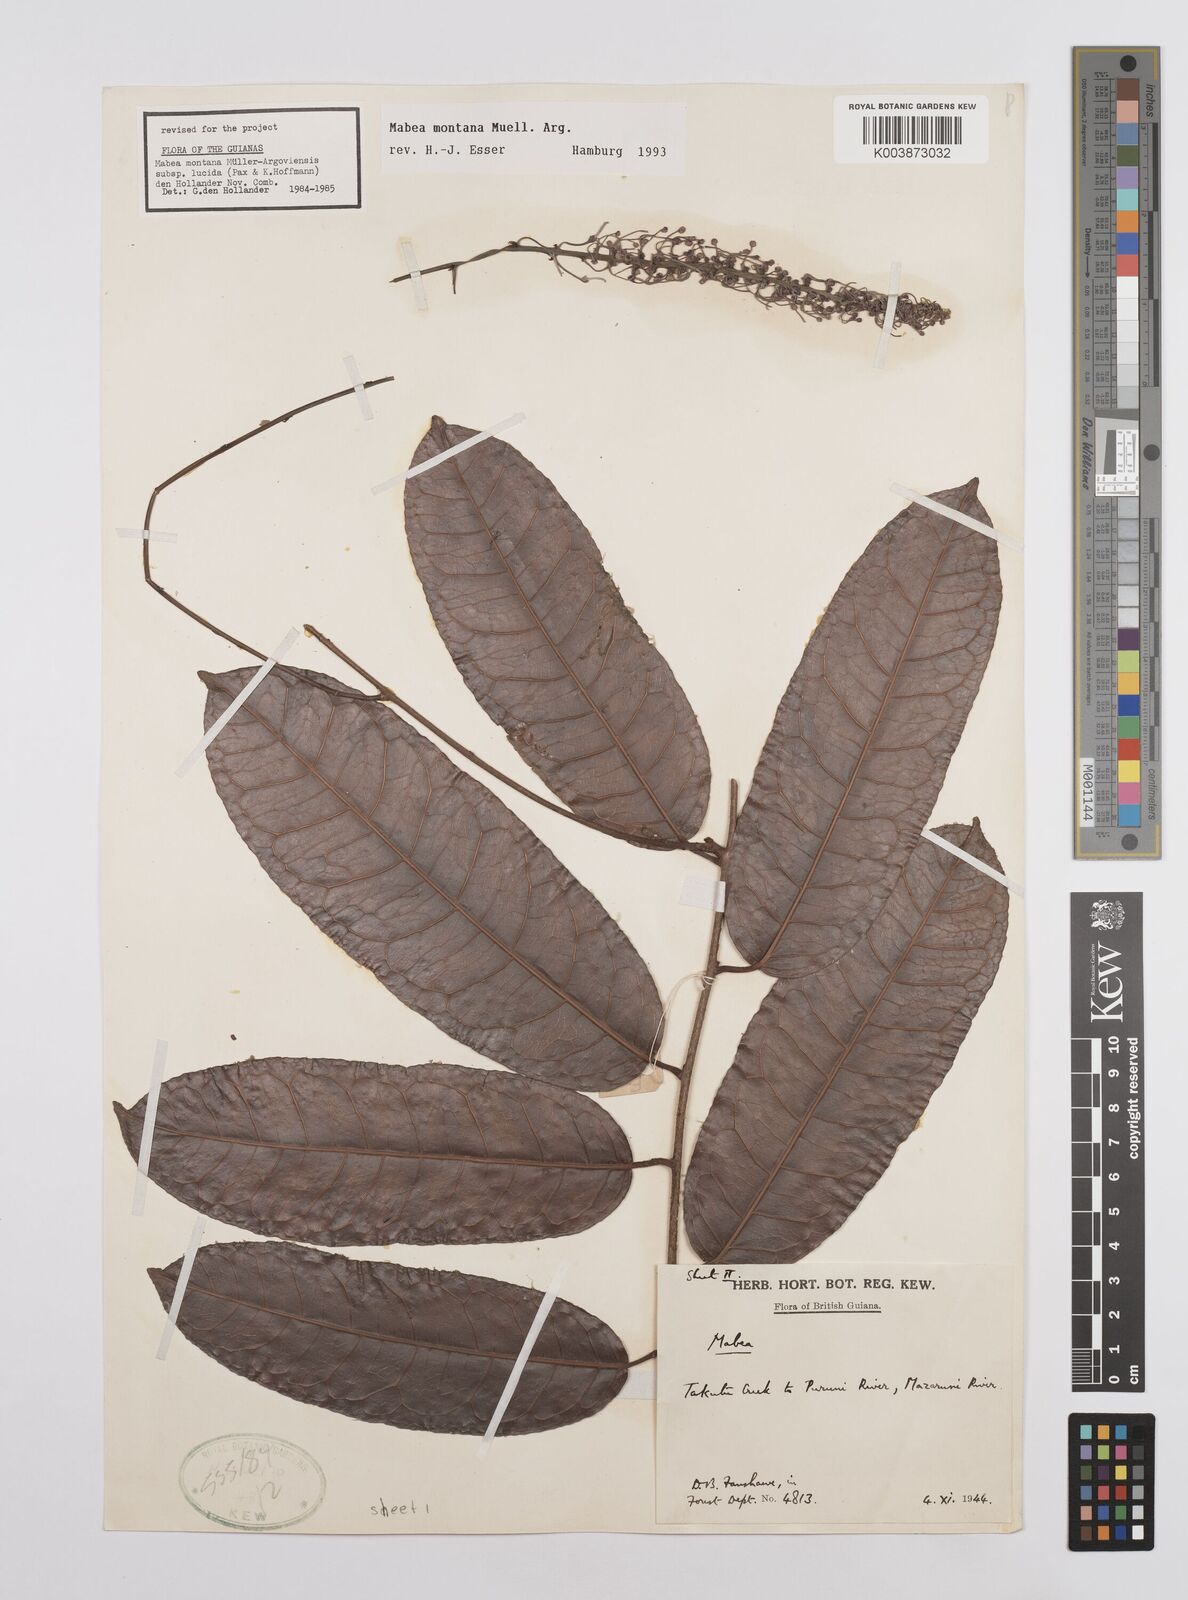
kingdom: Plantae
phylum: Tracheophyta
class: Magnoliopsida
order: Malpighiales
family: Euphorbiaceae
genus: Mabea
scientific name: Mabea montana
